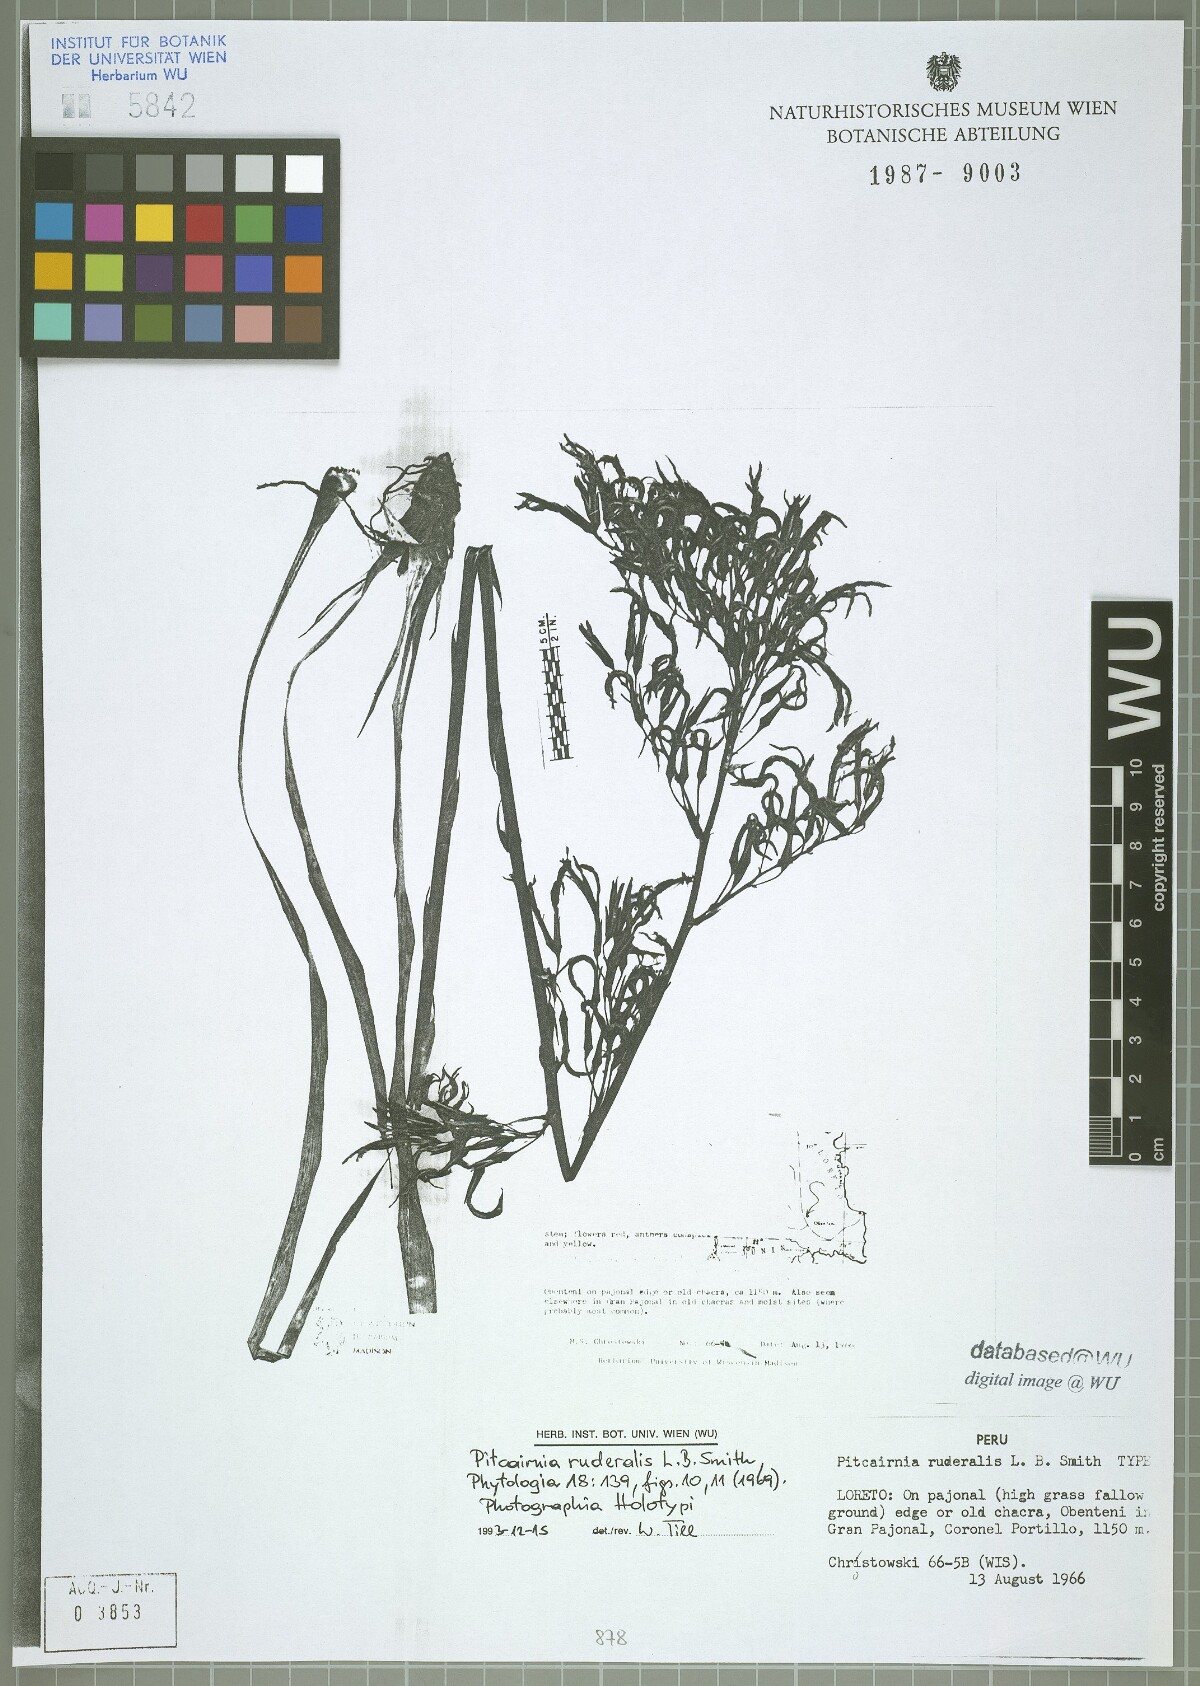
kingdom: Plantae
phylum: Tracheophyta
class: Liliopsida
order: Poales
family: Bromeliaceae
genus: Pitcairnia
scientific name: Pitcairnia ruderalis
